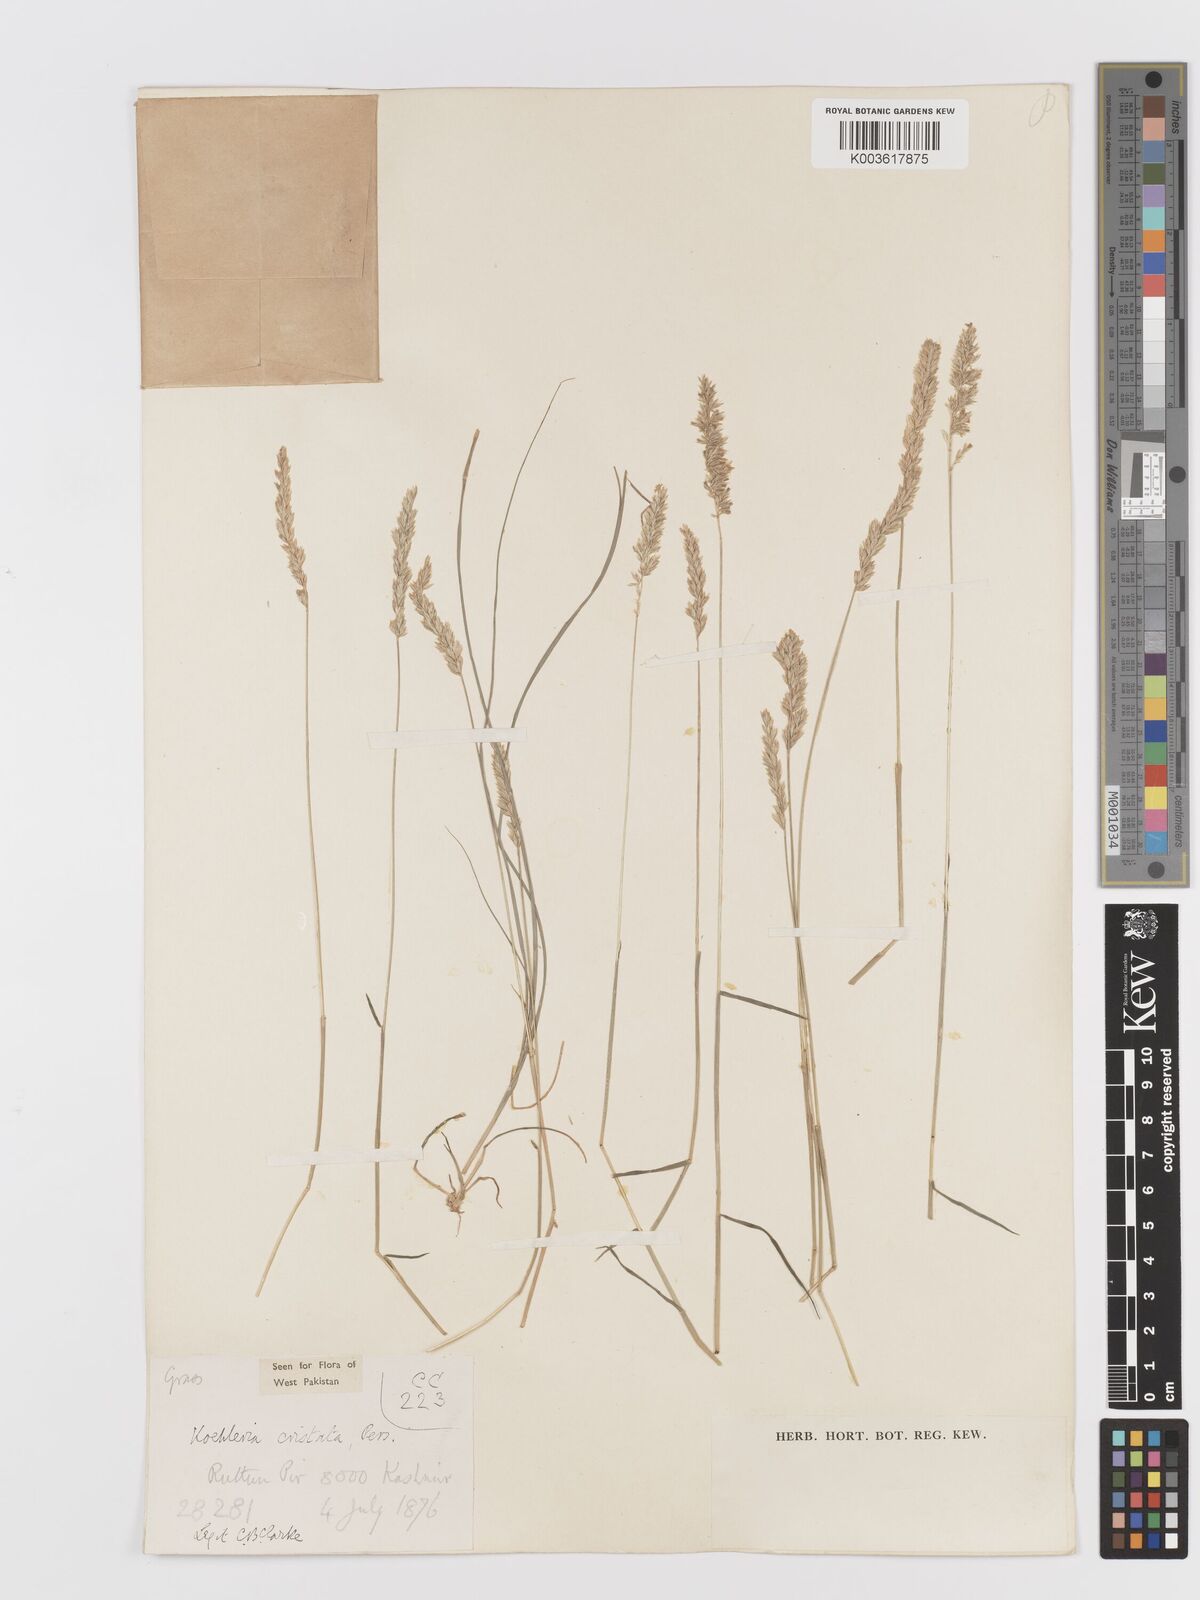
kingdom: Plantae
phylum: Tracheophyta
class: Liliopsida
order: Poales
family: Poaceae
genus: Koeleria
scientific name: Koeleria
